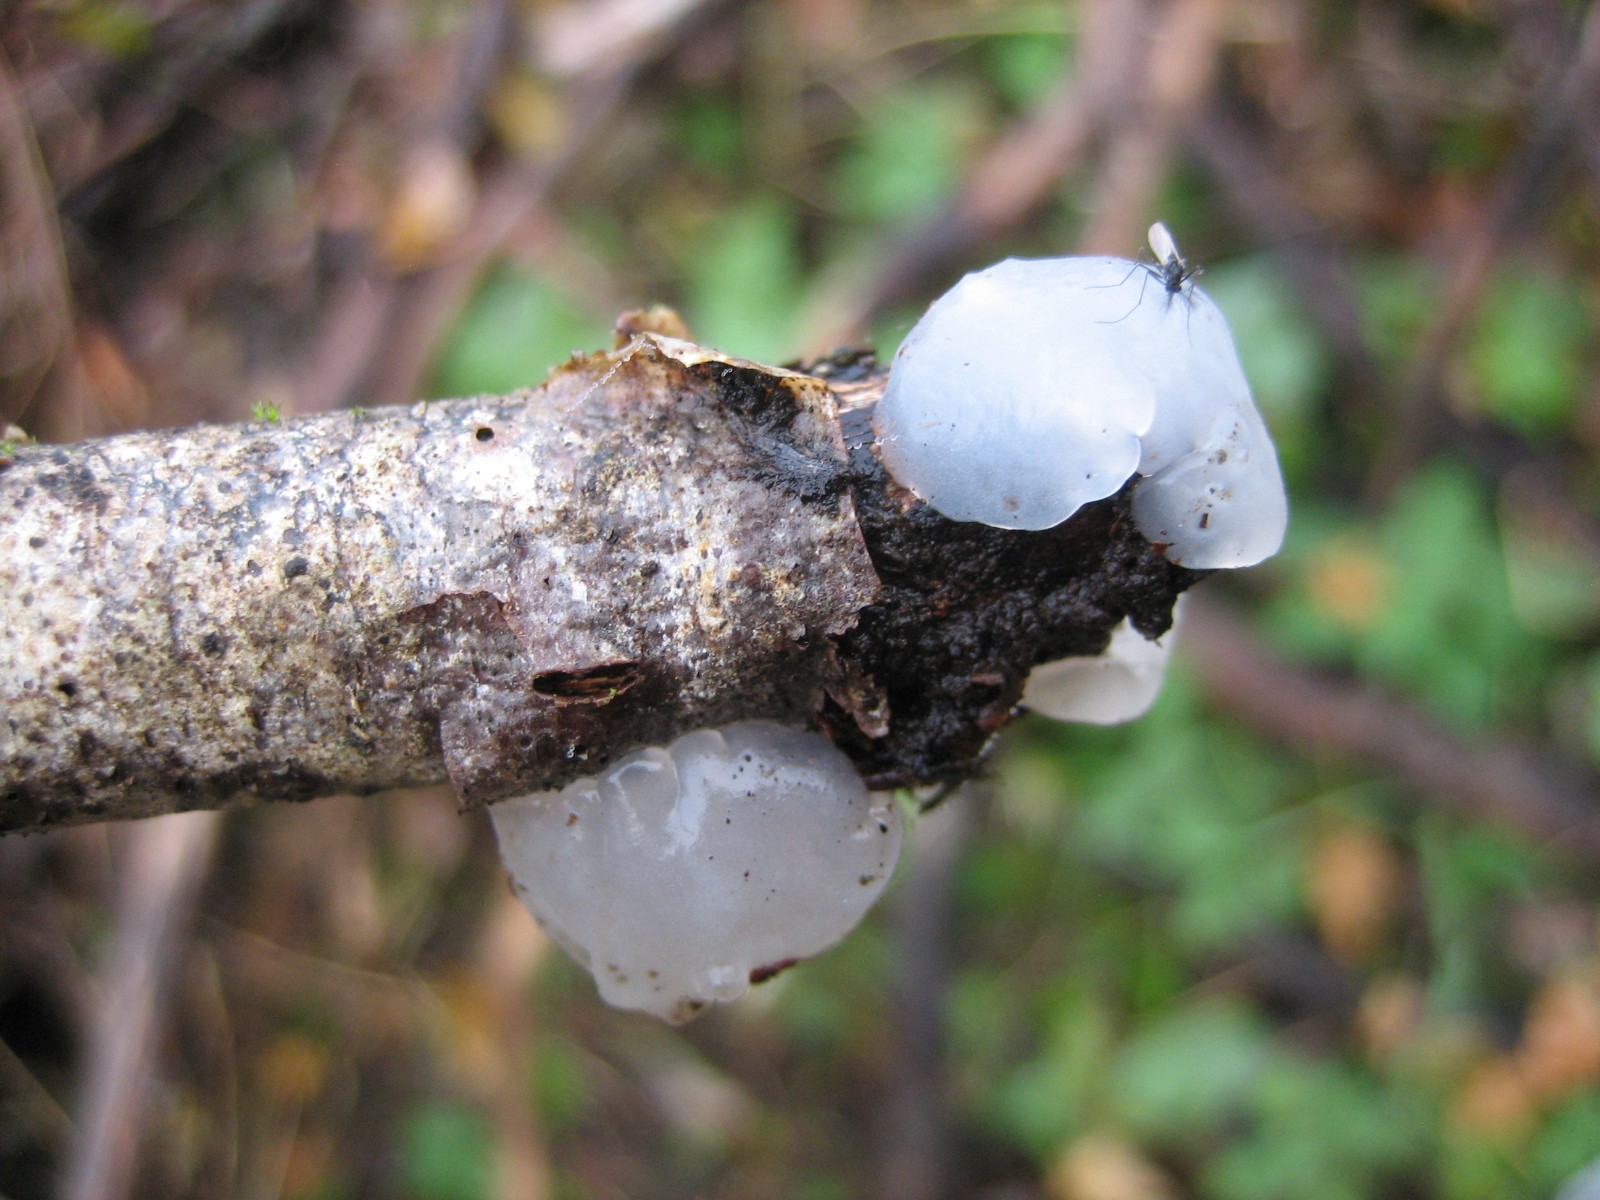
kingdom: Fungi
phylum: Basidiomycota
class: Agaricomycetes
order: Auriculariales
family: Auriculariaceae
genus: Exidia
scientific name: Exidia thuretiana
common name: hvidlig bævretop
